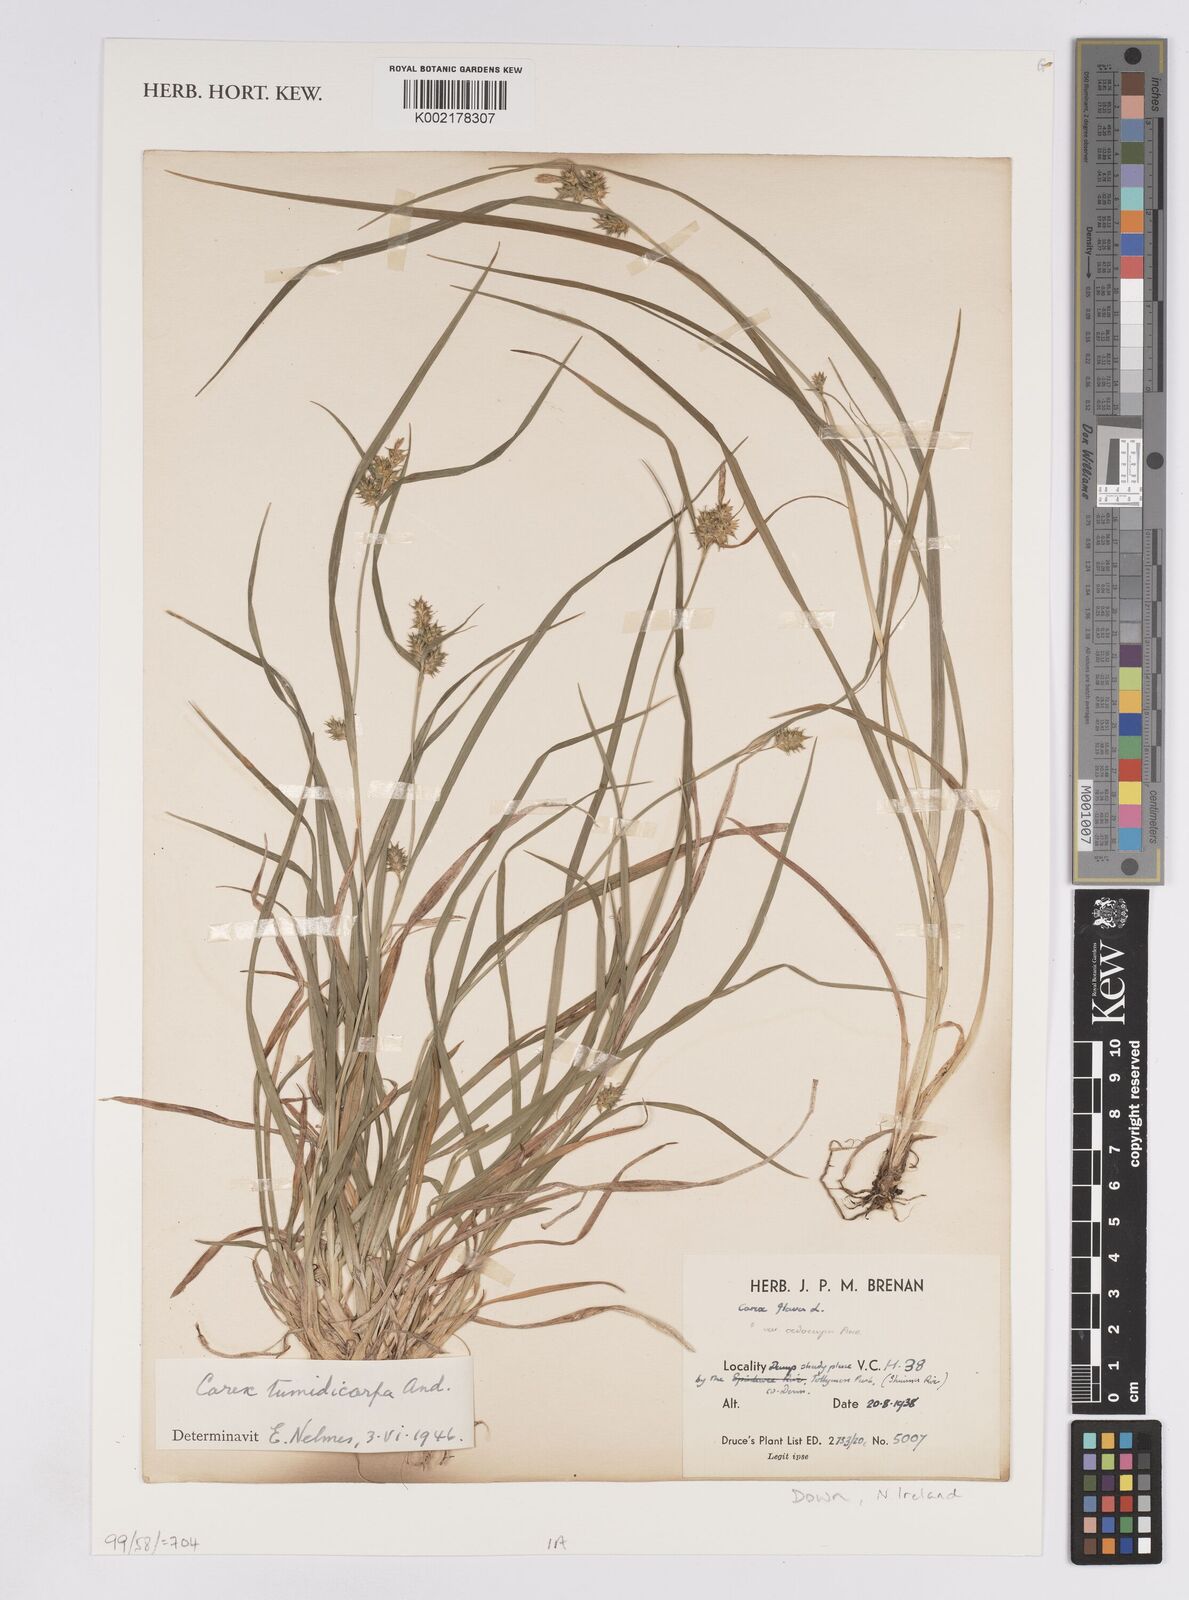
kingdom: Plantae
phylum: Tracheophyta
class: Liliopsida
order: Poales
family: Cyperaceae
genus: Carex
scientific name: Carex demissa
